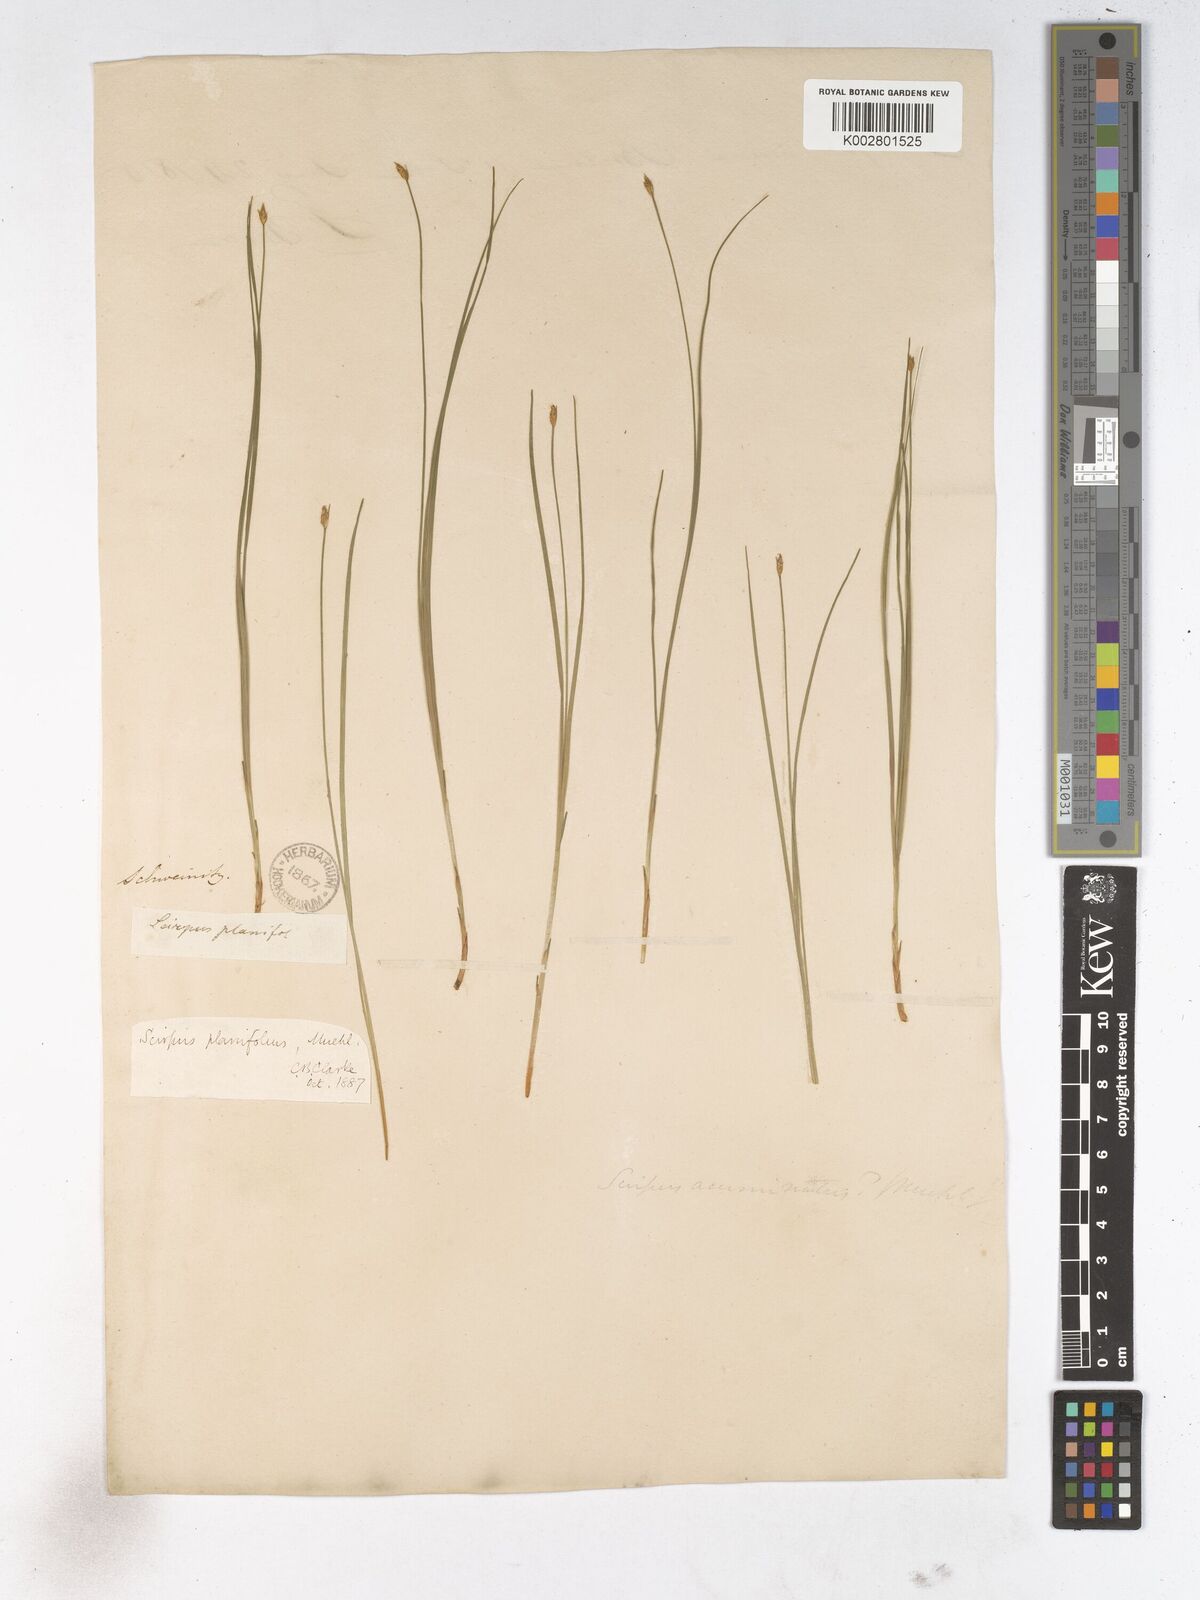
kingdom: Plantae
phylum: Tracheophyta
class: Liliopsida
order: Poales
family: Cyperaceae
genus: Trichophorum
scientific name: Trichophorum planifolium
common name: Bashful bulrush
